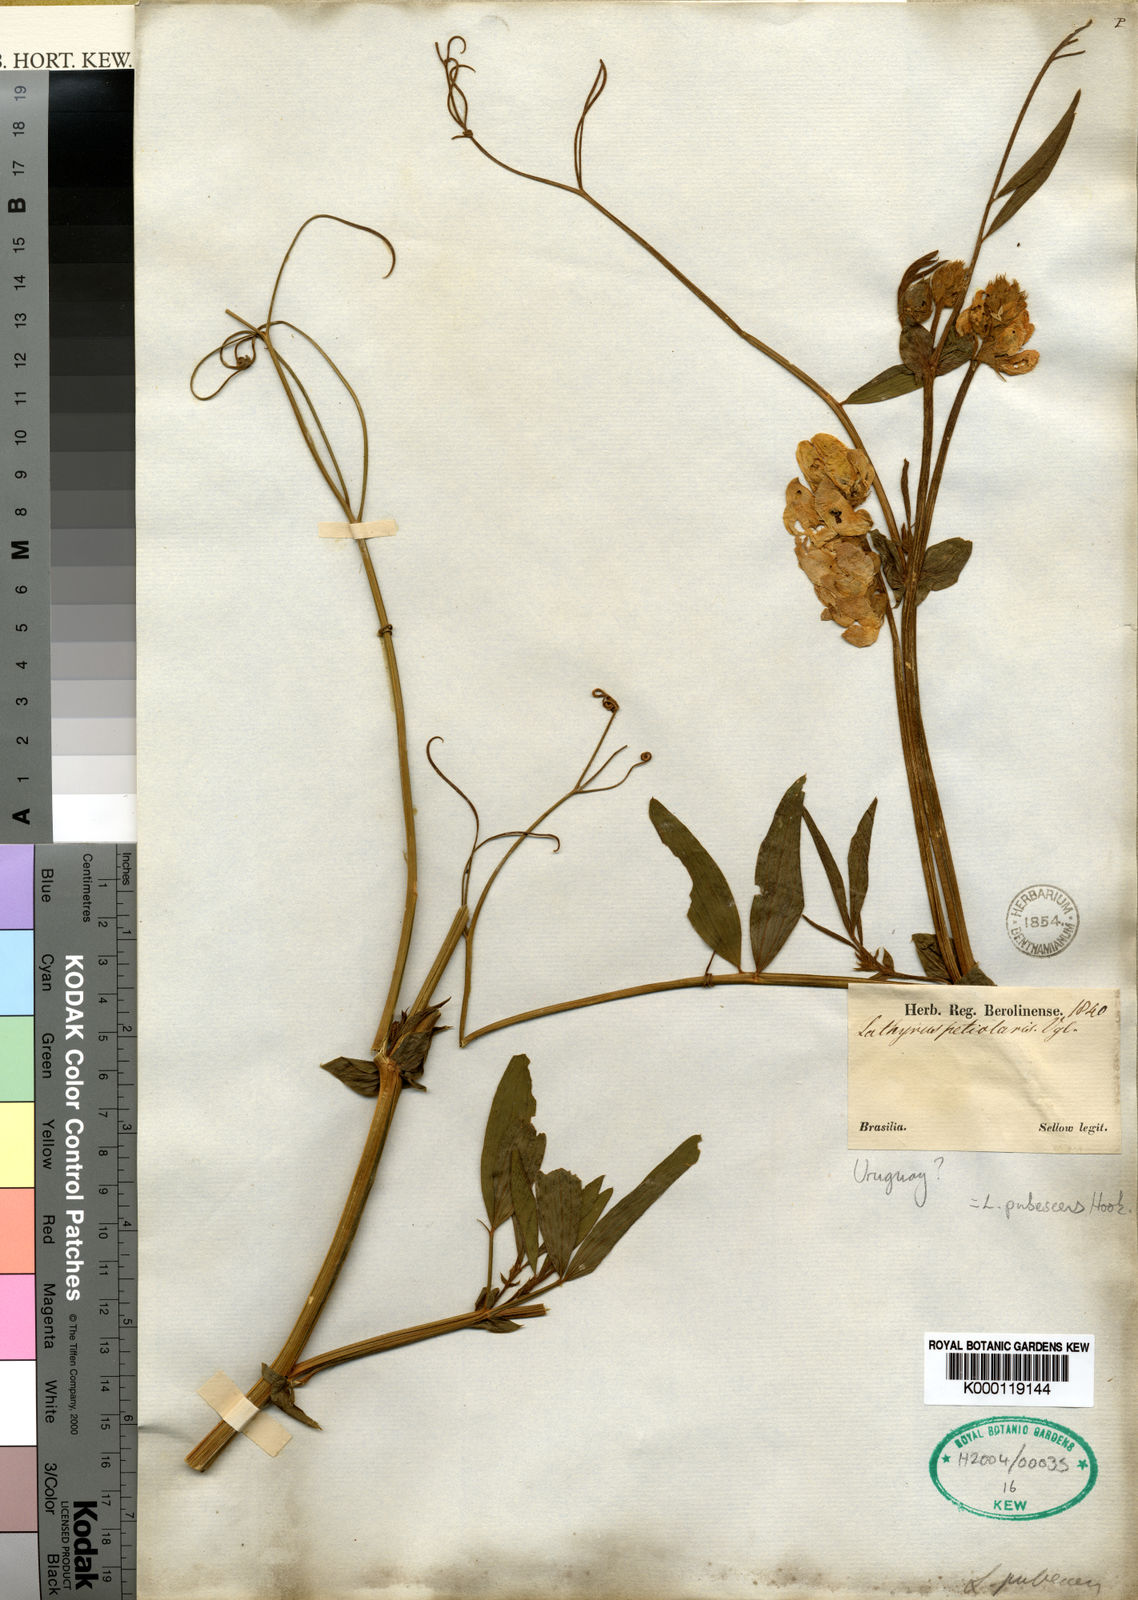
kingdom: Plantae
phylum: Tracheophyta
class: Magnoliopsida
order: Fabales
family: Fabaceae
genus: Lathyrus
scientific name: Lathyrus pubescens
